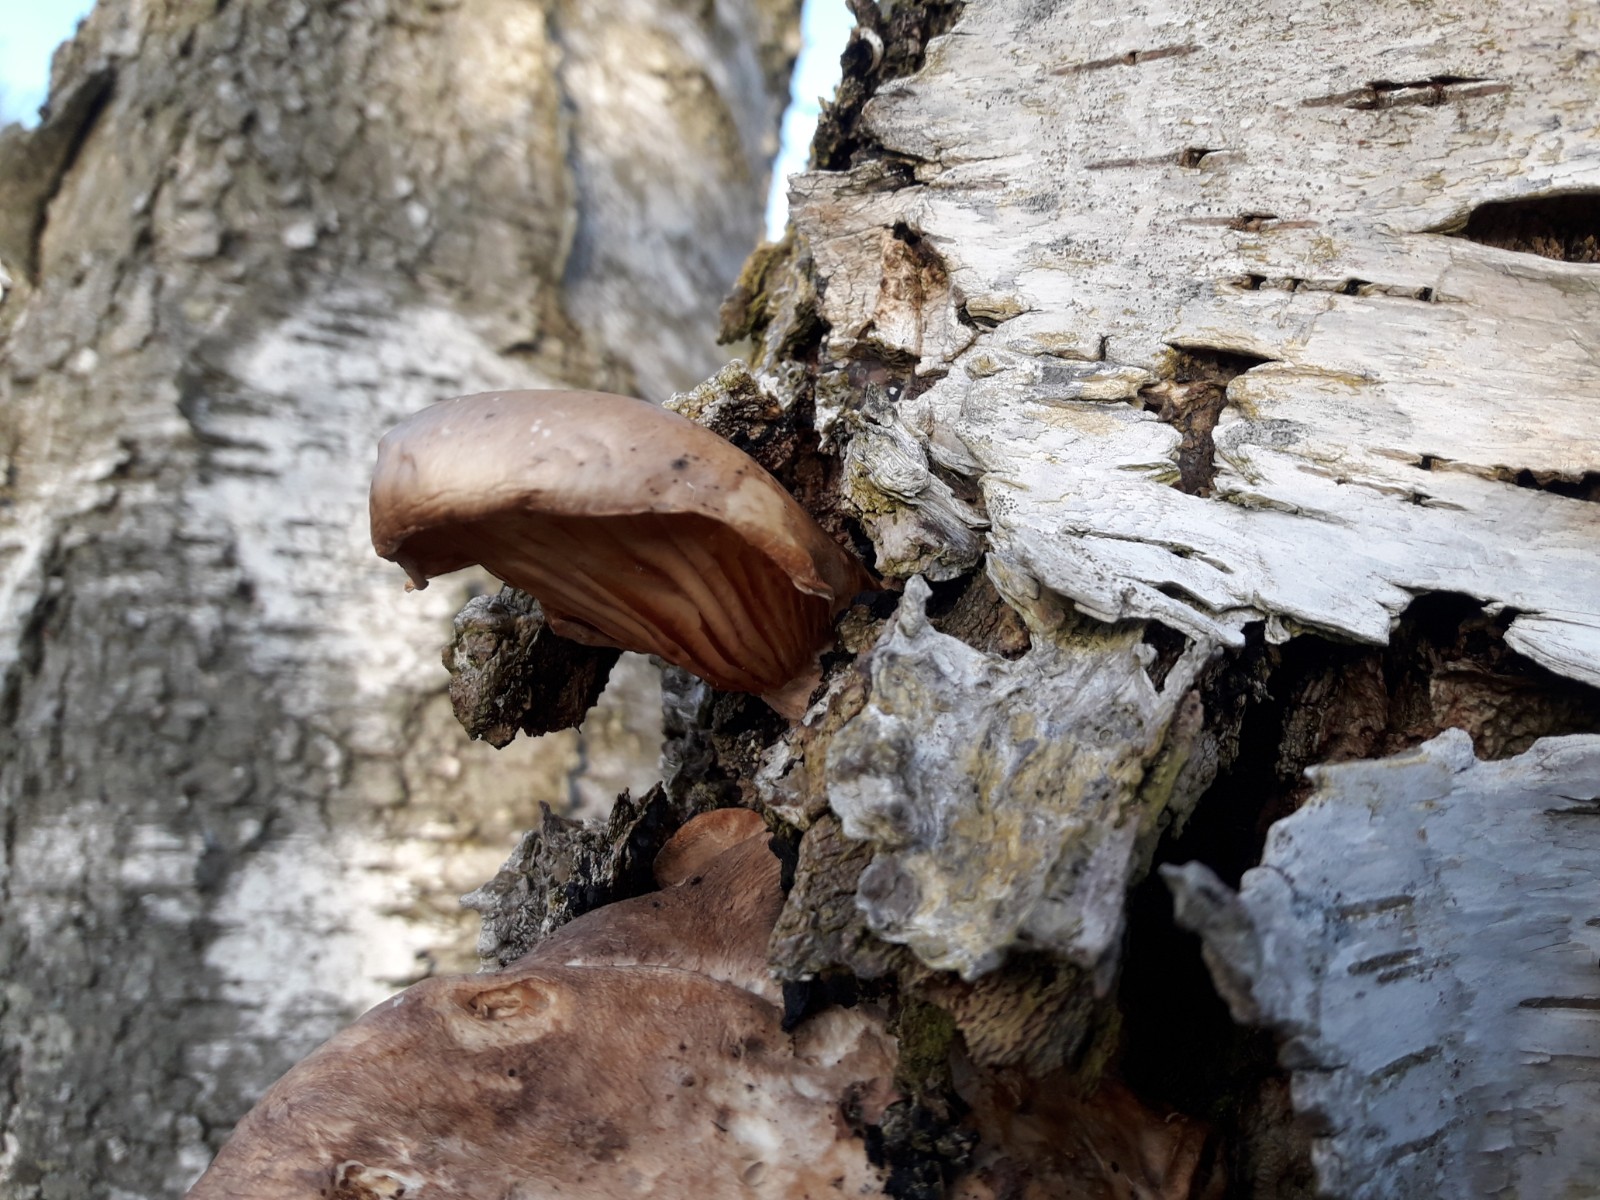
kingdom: Fungi
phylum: Basidiomycota
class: Agaricomycetes
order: Polyporales
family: Panaceae
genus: Panus
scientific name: Panus conchatus
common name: filtstokket læderhat
